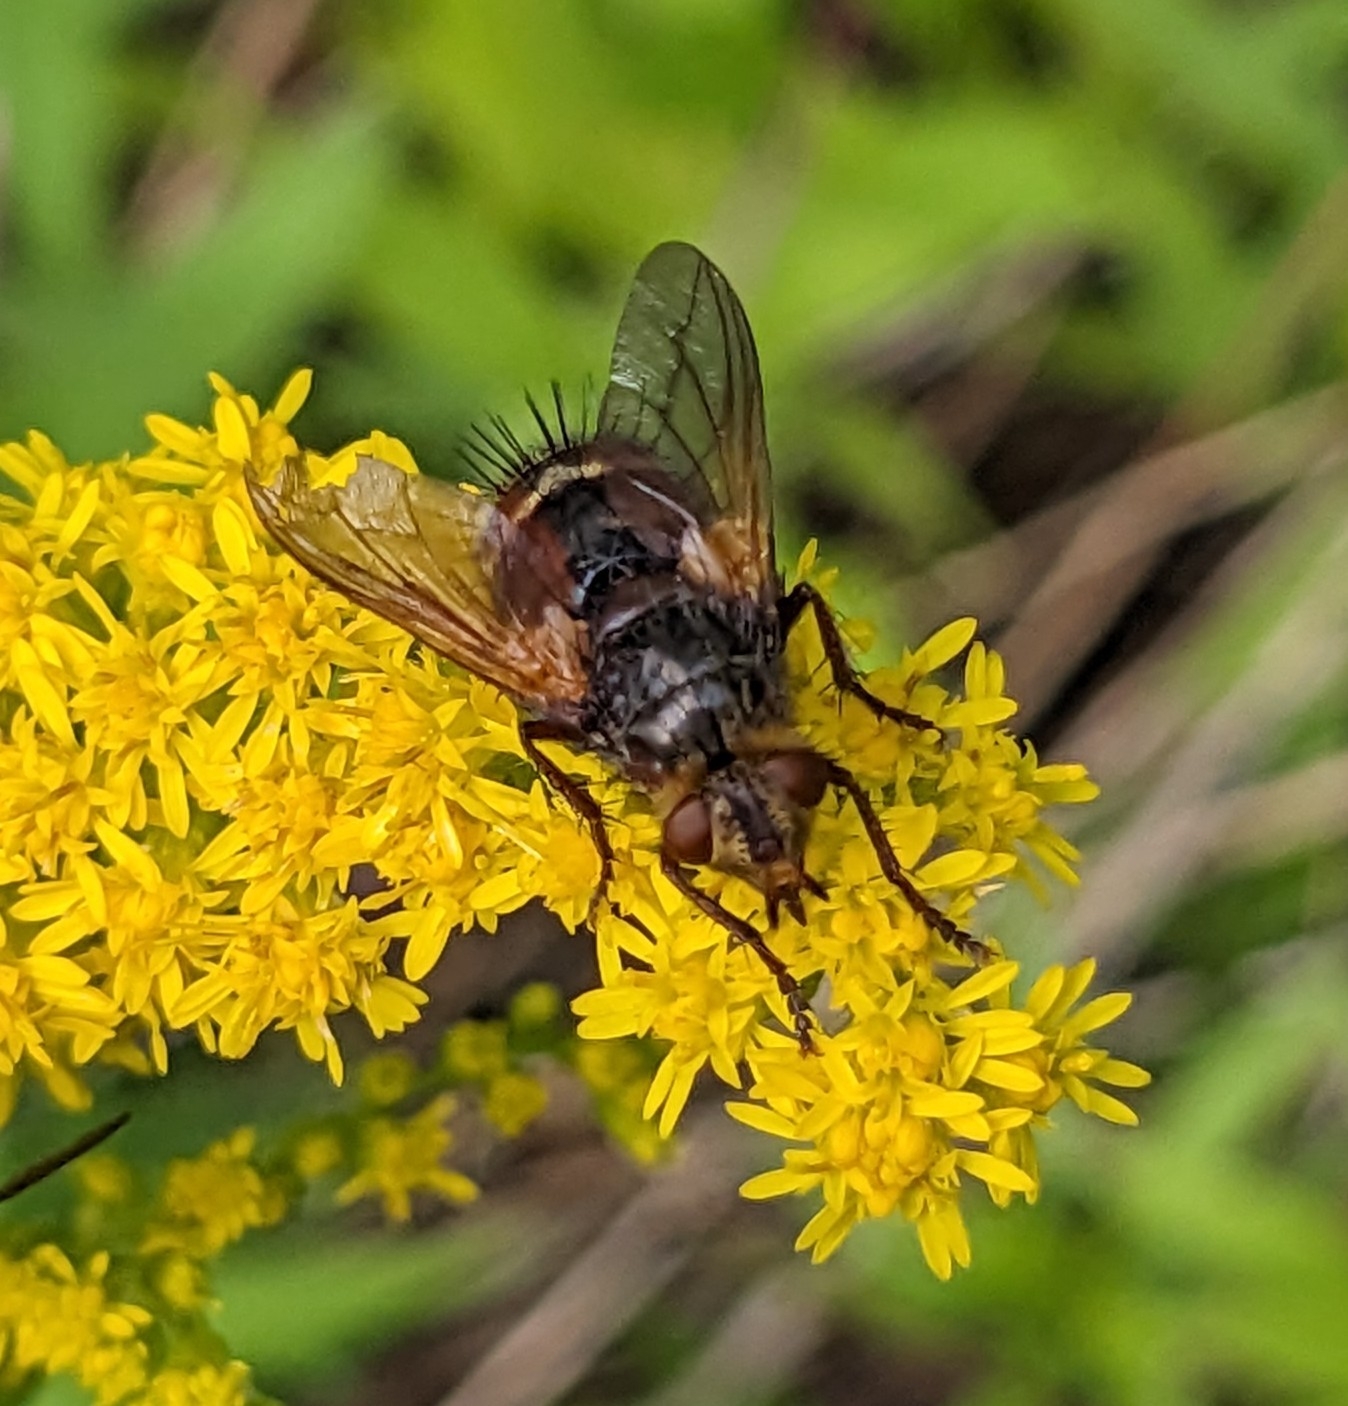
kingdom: Animalia
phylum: Arthropoda
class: Insecta
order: Diptera
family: Tachinidae
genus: Tachina
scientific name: Tachina fera
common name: Mellemfluen oskar
